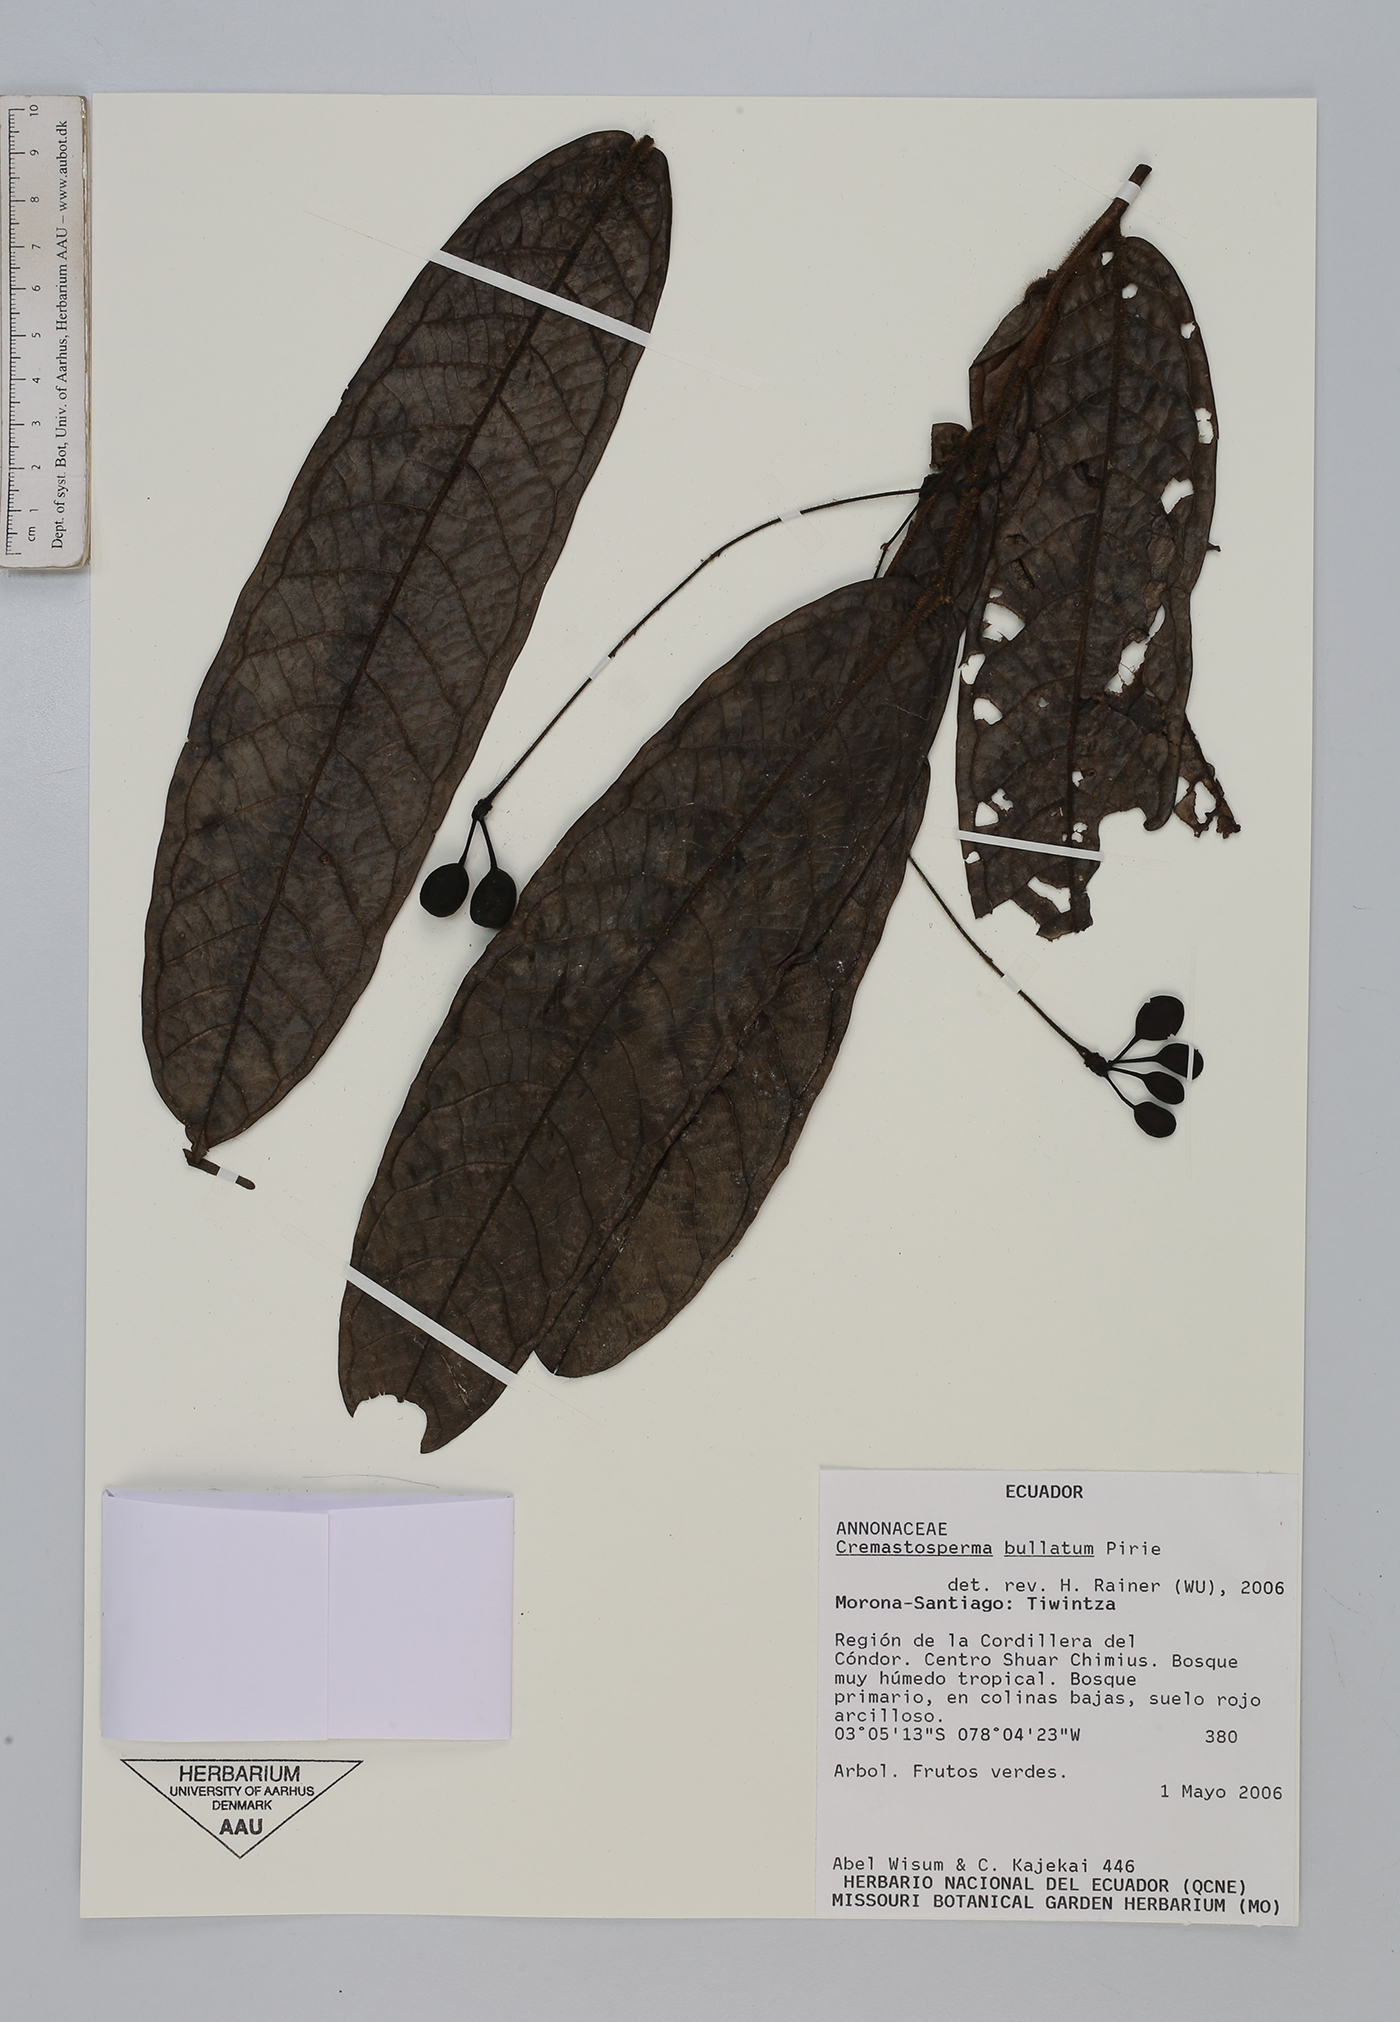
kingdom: Plantae
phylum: Tracheophyta
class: Magnoliopsida
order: Magnoliales
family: Annonaceae
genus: Cremastosperma
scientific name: Cremastosperma bullatum
